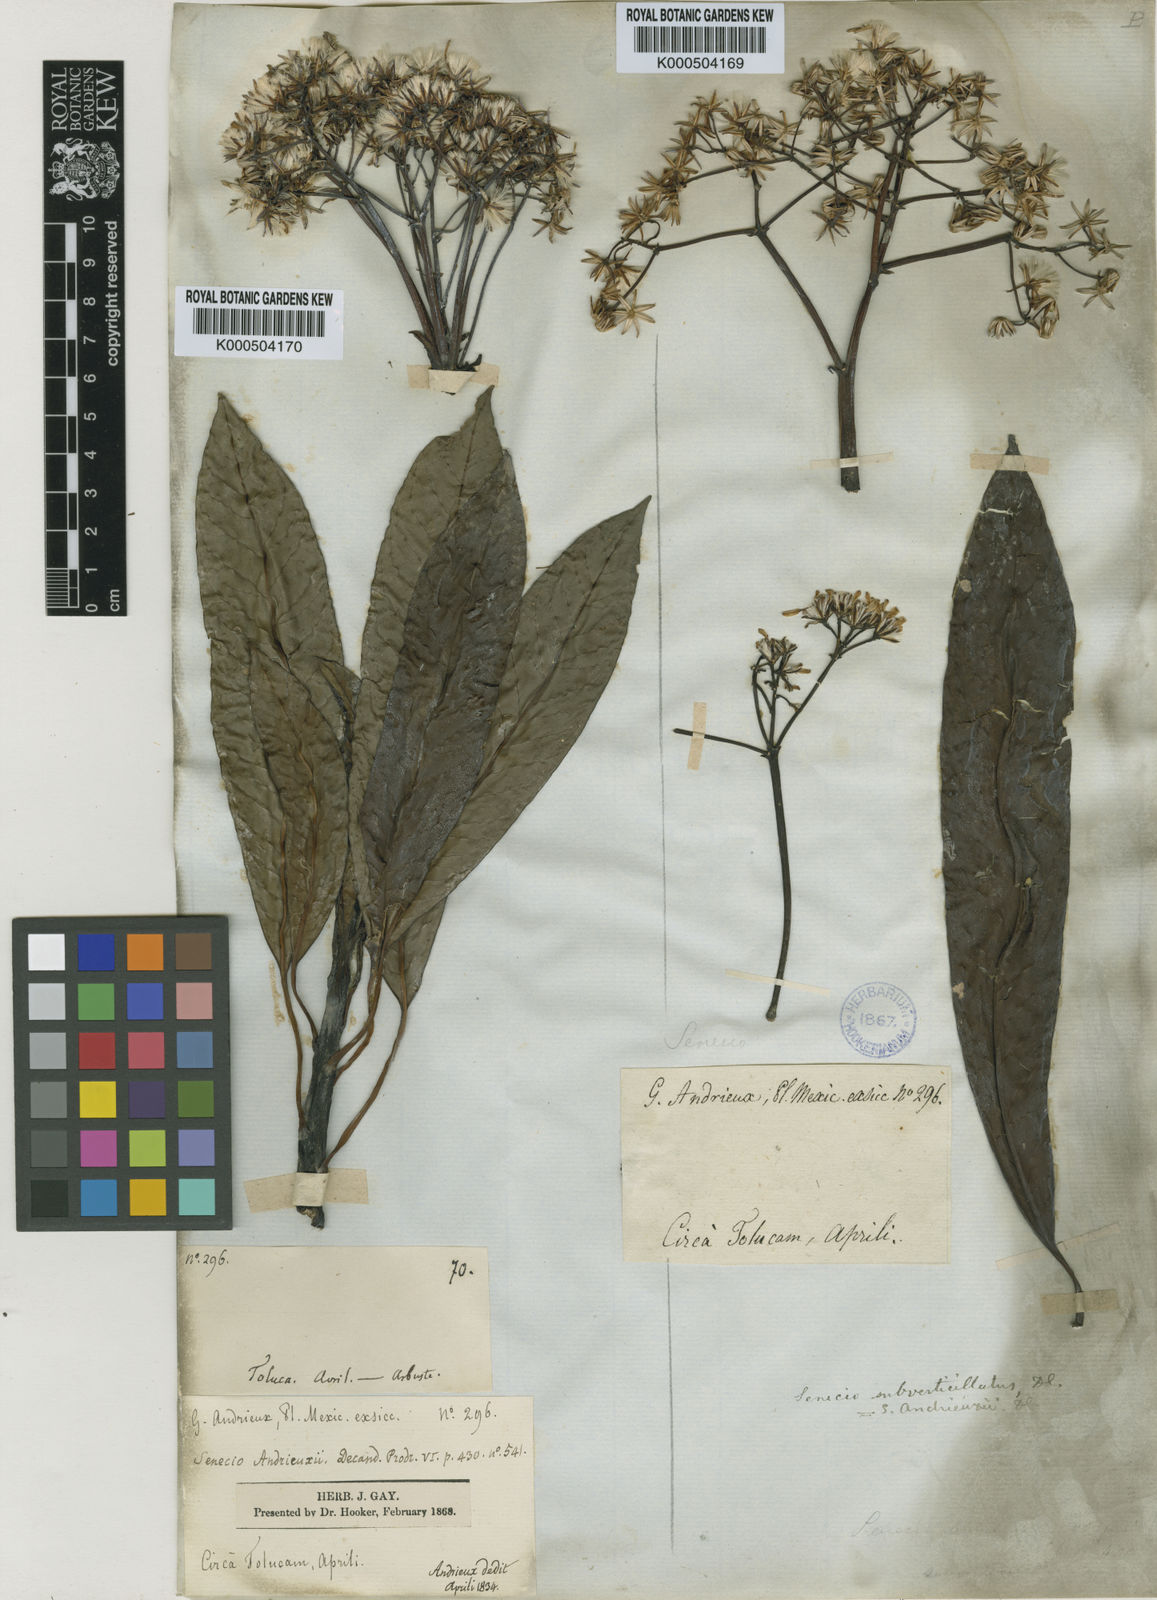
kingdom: Plantae
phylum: Tracheophyta
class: Magnoliopsida
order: Asterales
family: Asteraceae
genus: Telanthophora
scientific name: Telanthophora andrieuxii
